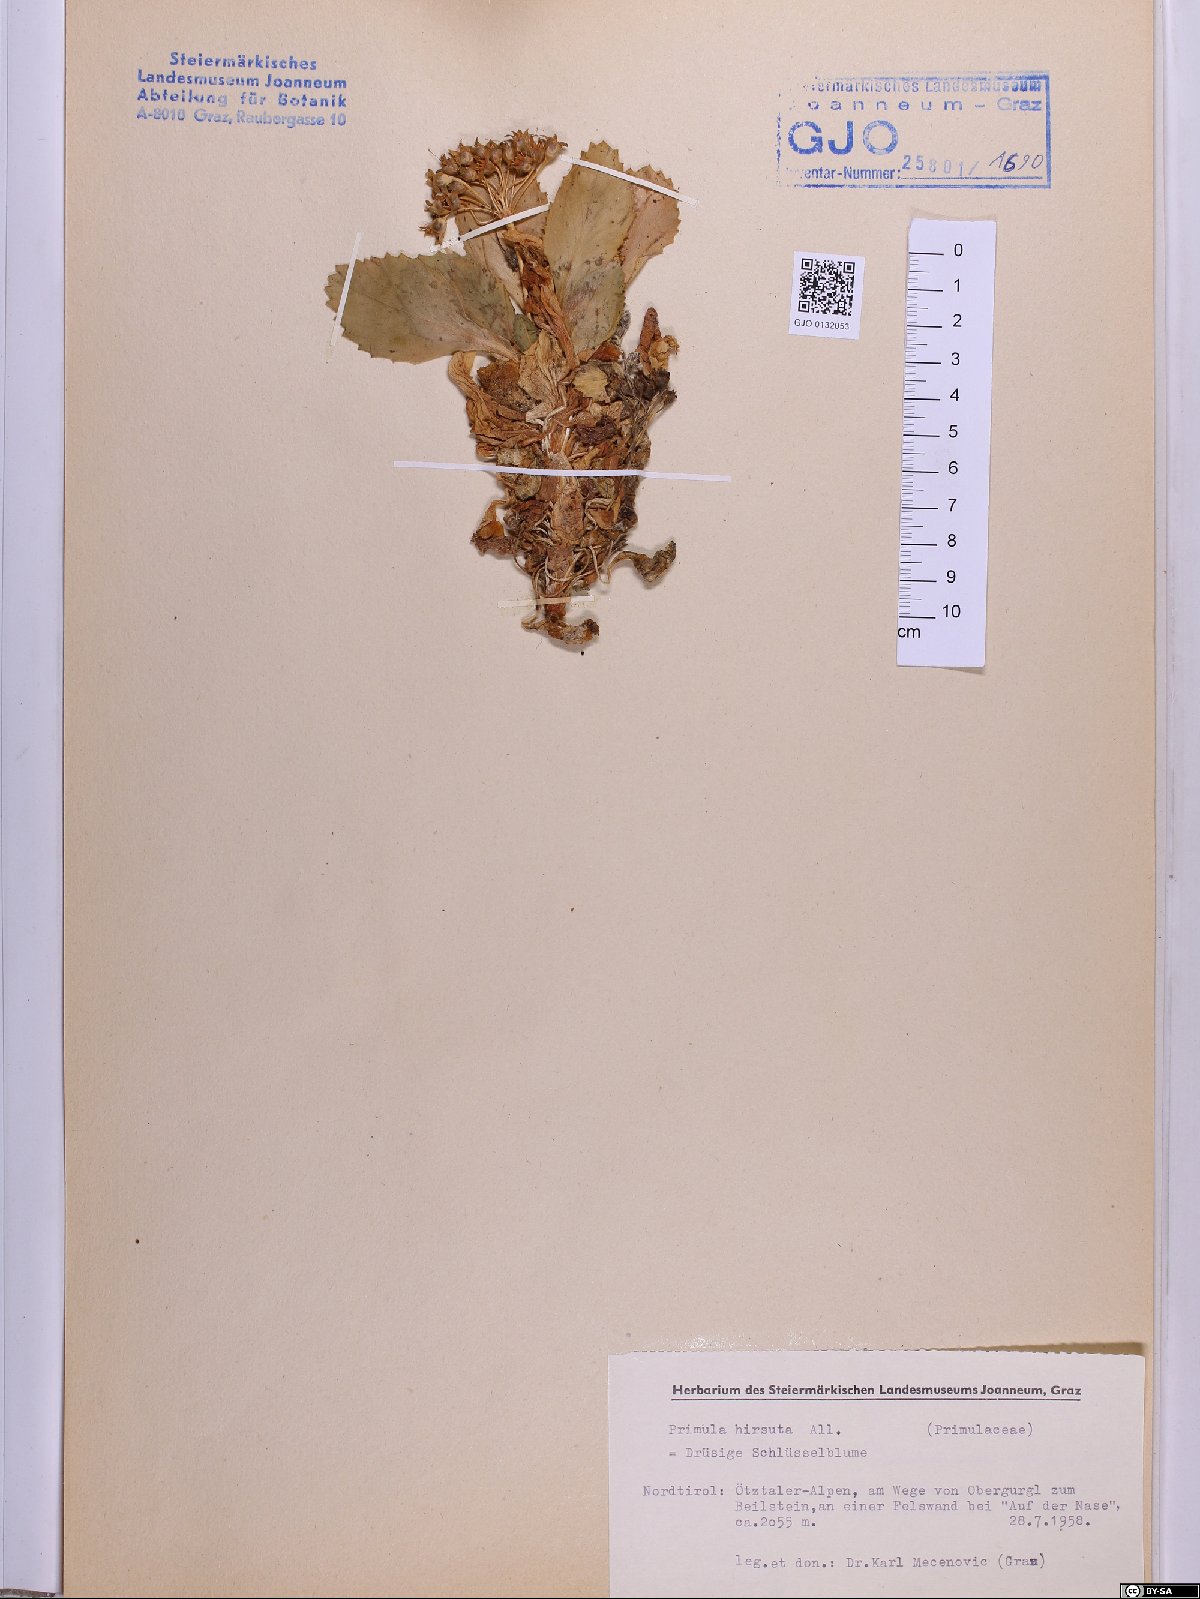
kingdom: Plantae
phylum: Tracheophyta
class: Magnoliopsida
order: Ericales
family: Primulaceae
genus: Primula
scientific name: Primula hirsuta
